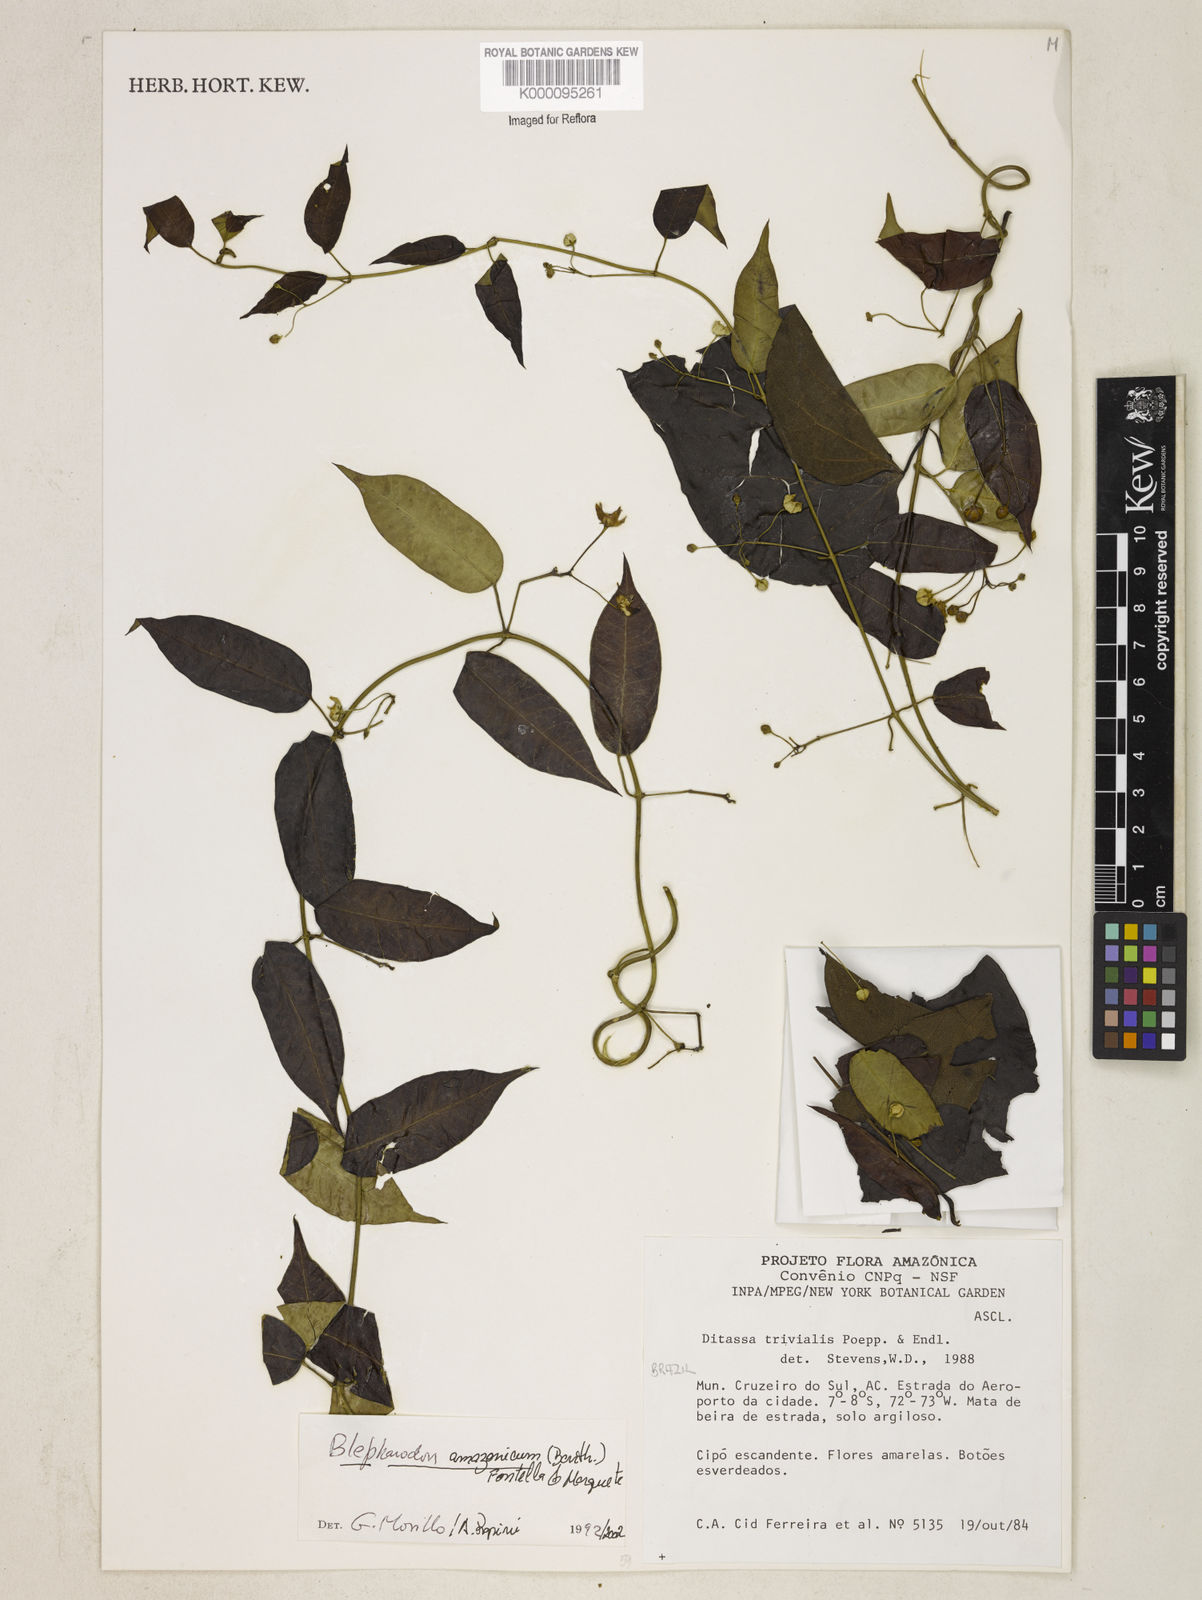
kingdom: Plantae
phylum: Tracheophyta
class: Magnoliopsida
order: Gentianales
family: Apocynaceae
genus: Blepharodon
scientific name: Blepharodon amazonicum
